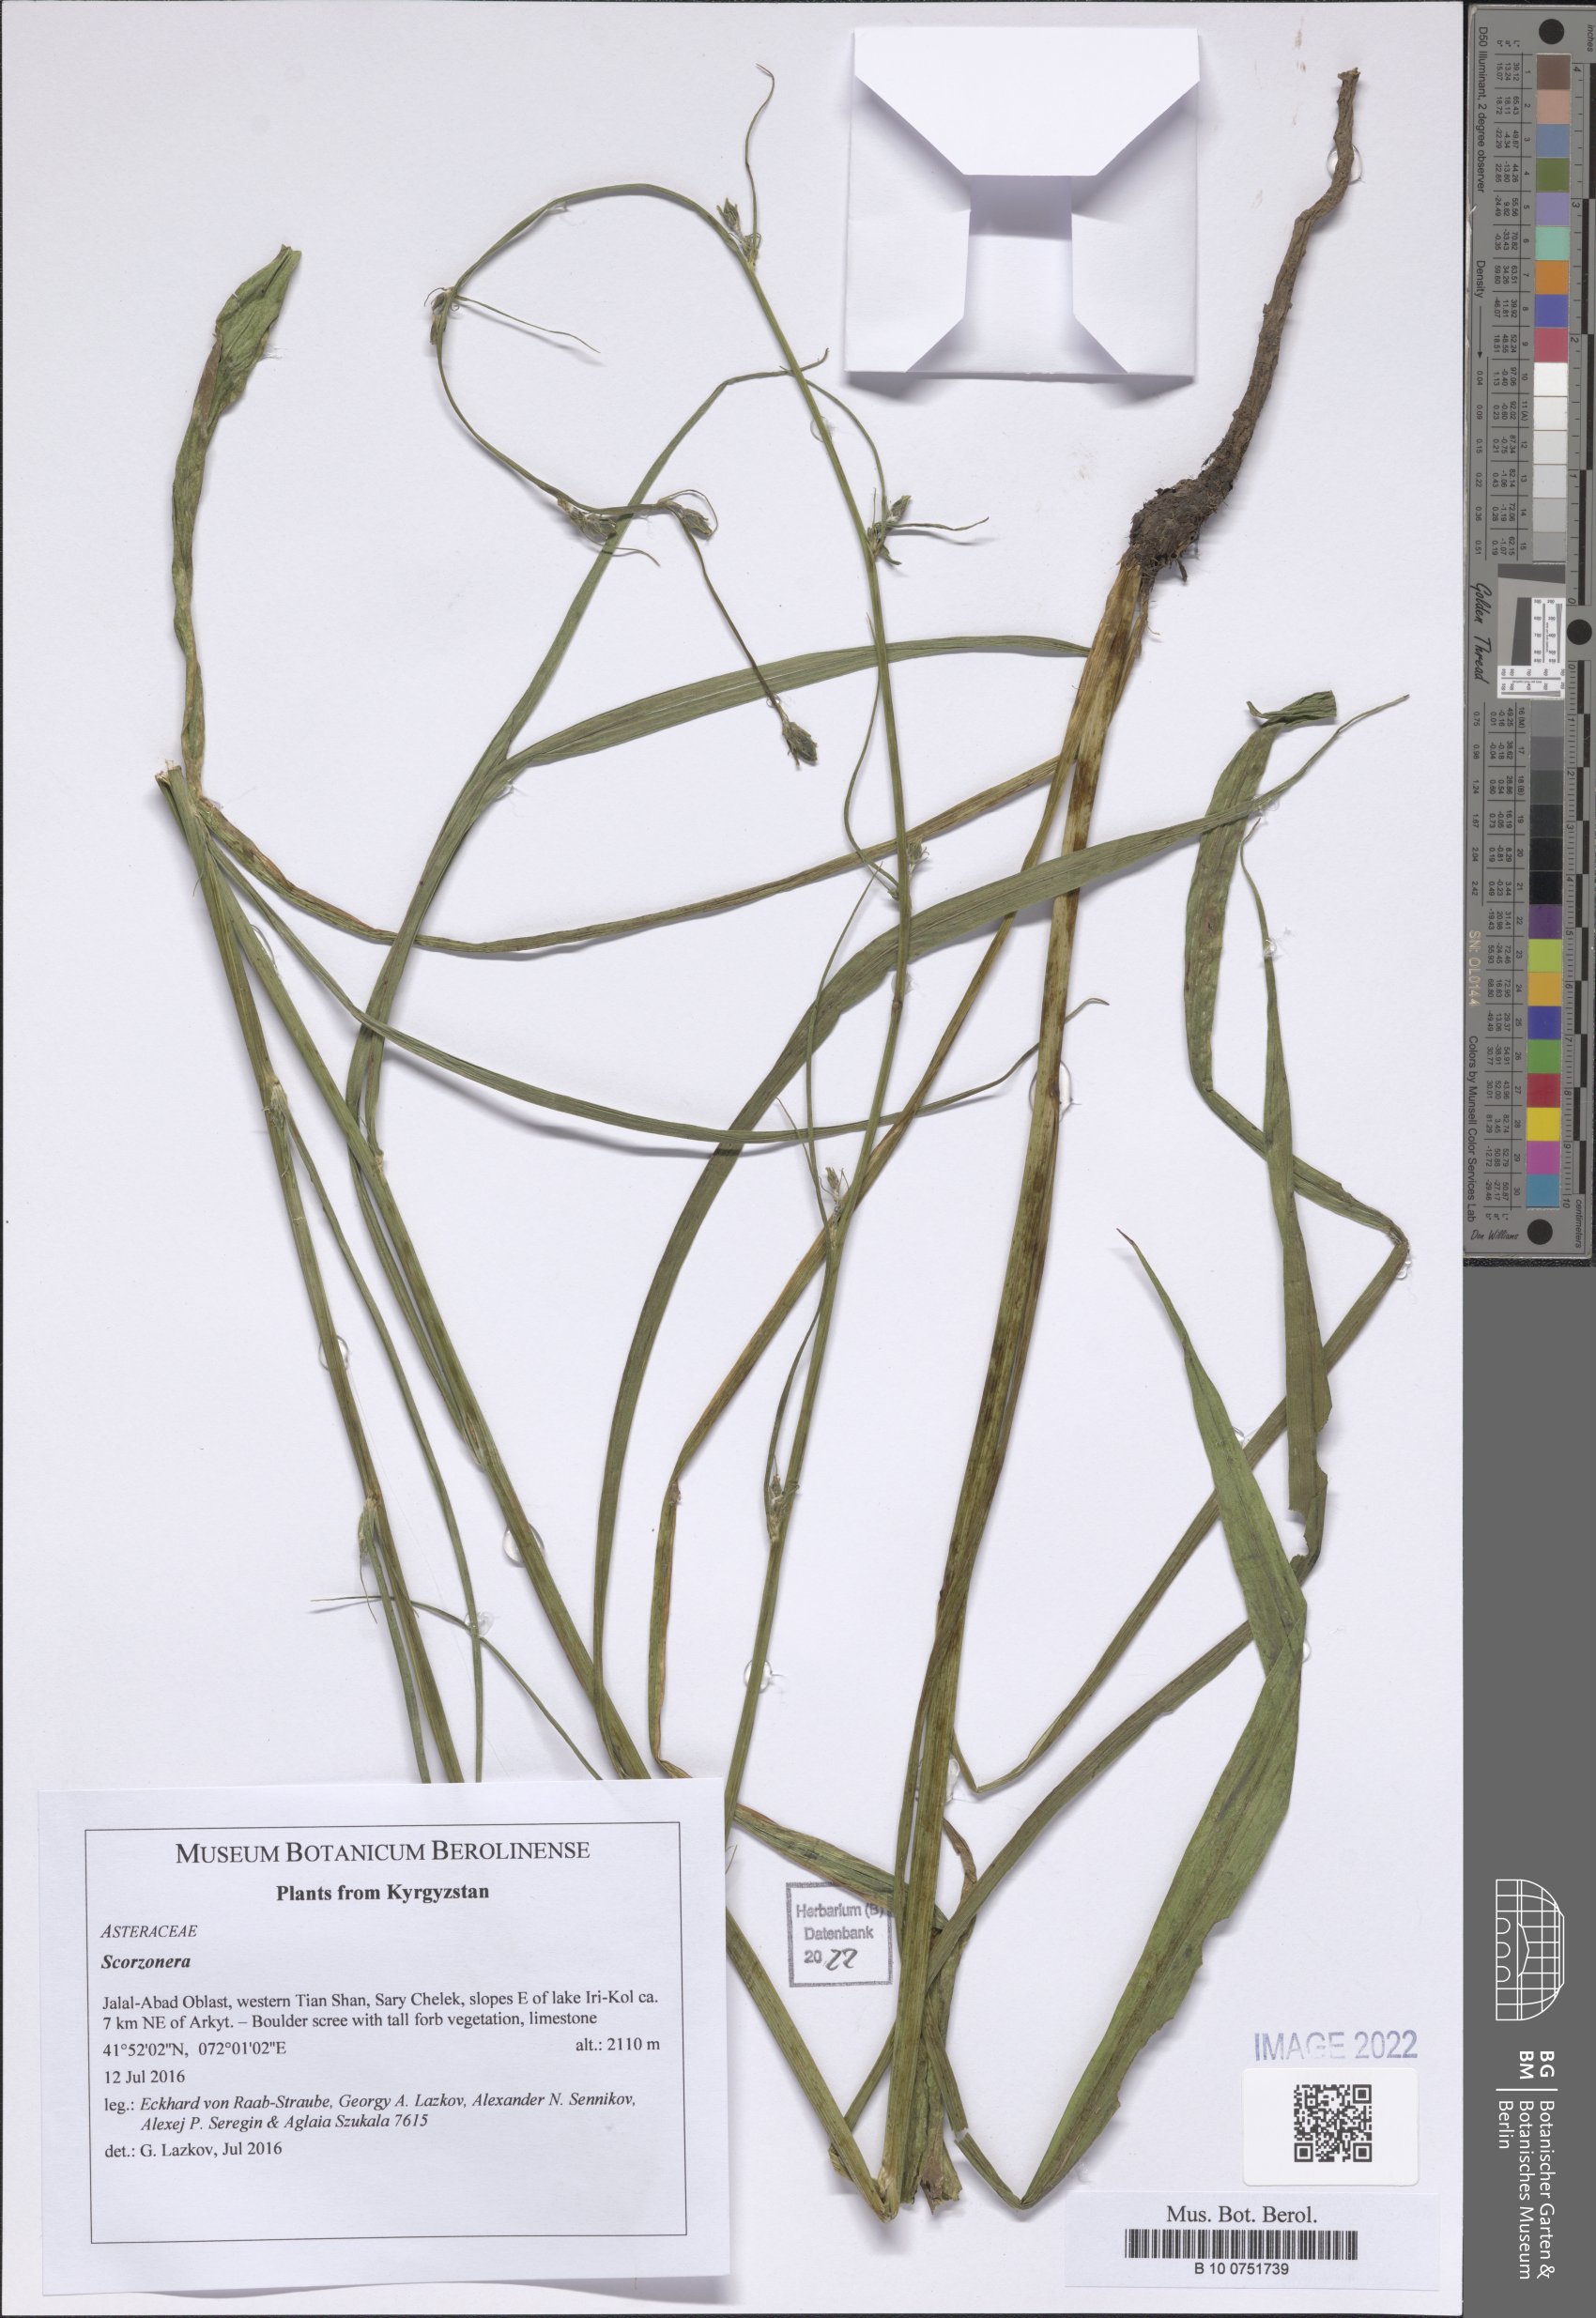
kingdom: Plantae
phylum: Tracheophyta
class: Magnoliopsida
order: Asterales
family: Asteraceae
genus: Scorzonera
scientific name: Scorzonera
